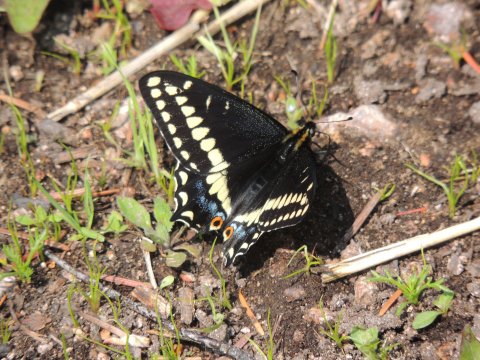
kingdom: Animalia
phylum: Arthropoda
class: Insecta
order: Lepidoptera
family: Papilionidae
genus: Papilio
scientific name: Papilio indra
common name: Indra Swallowtail
